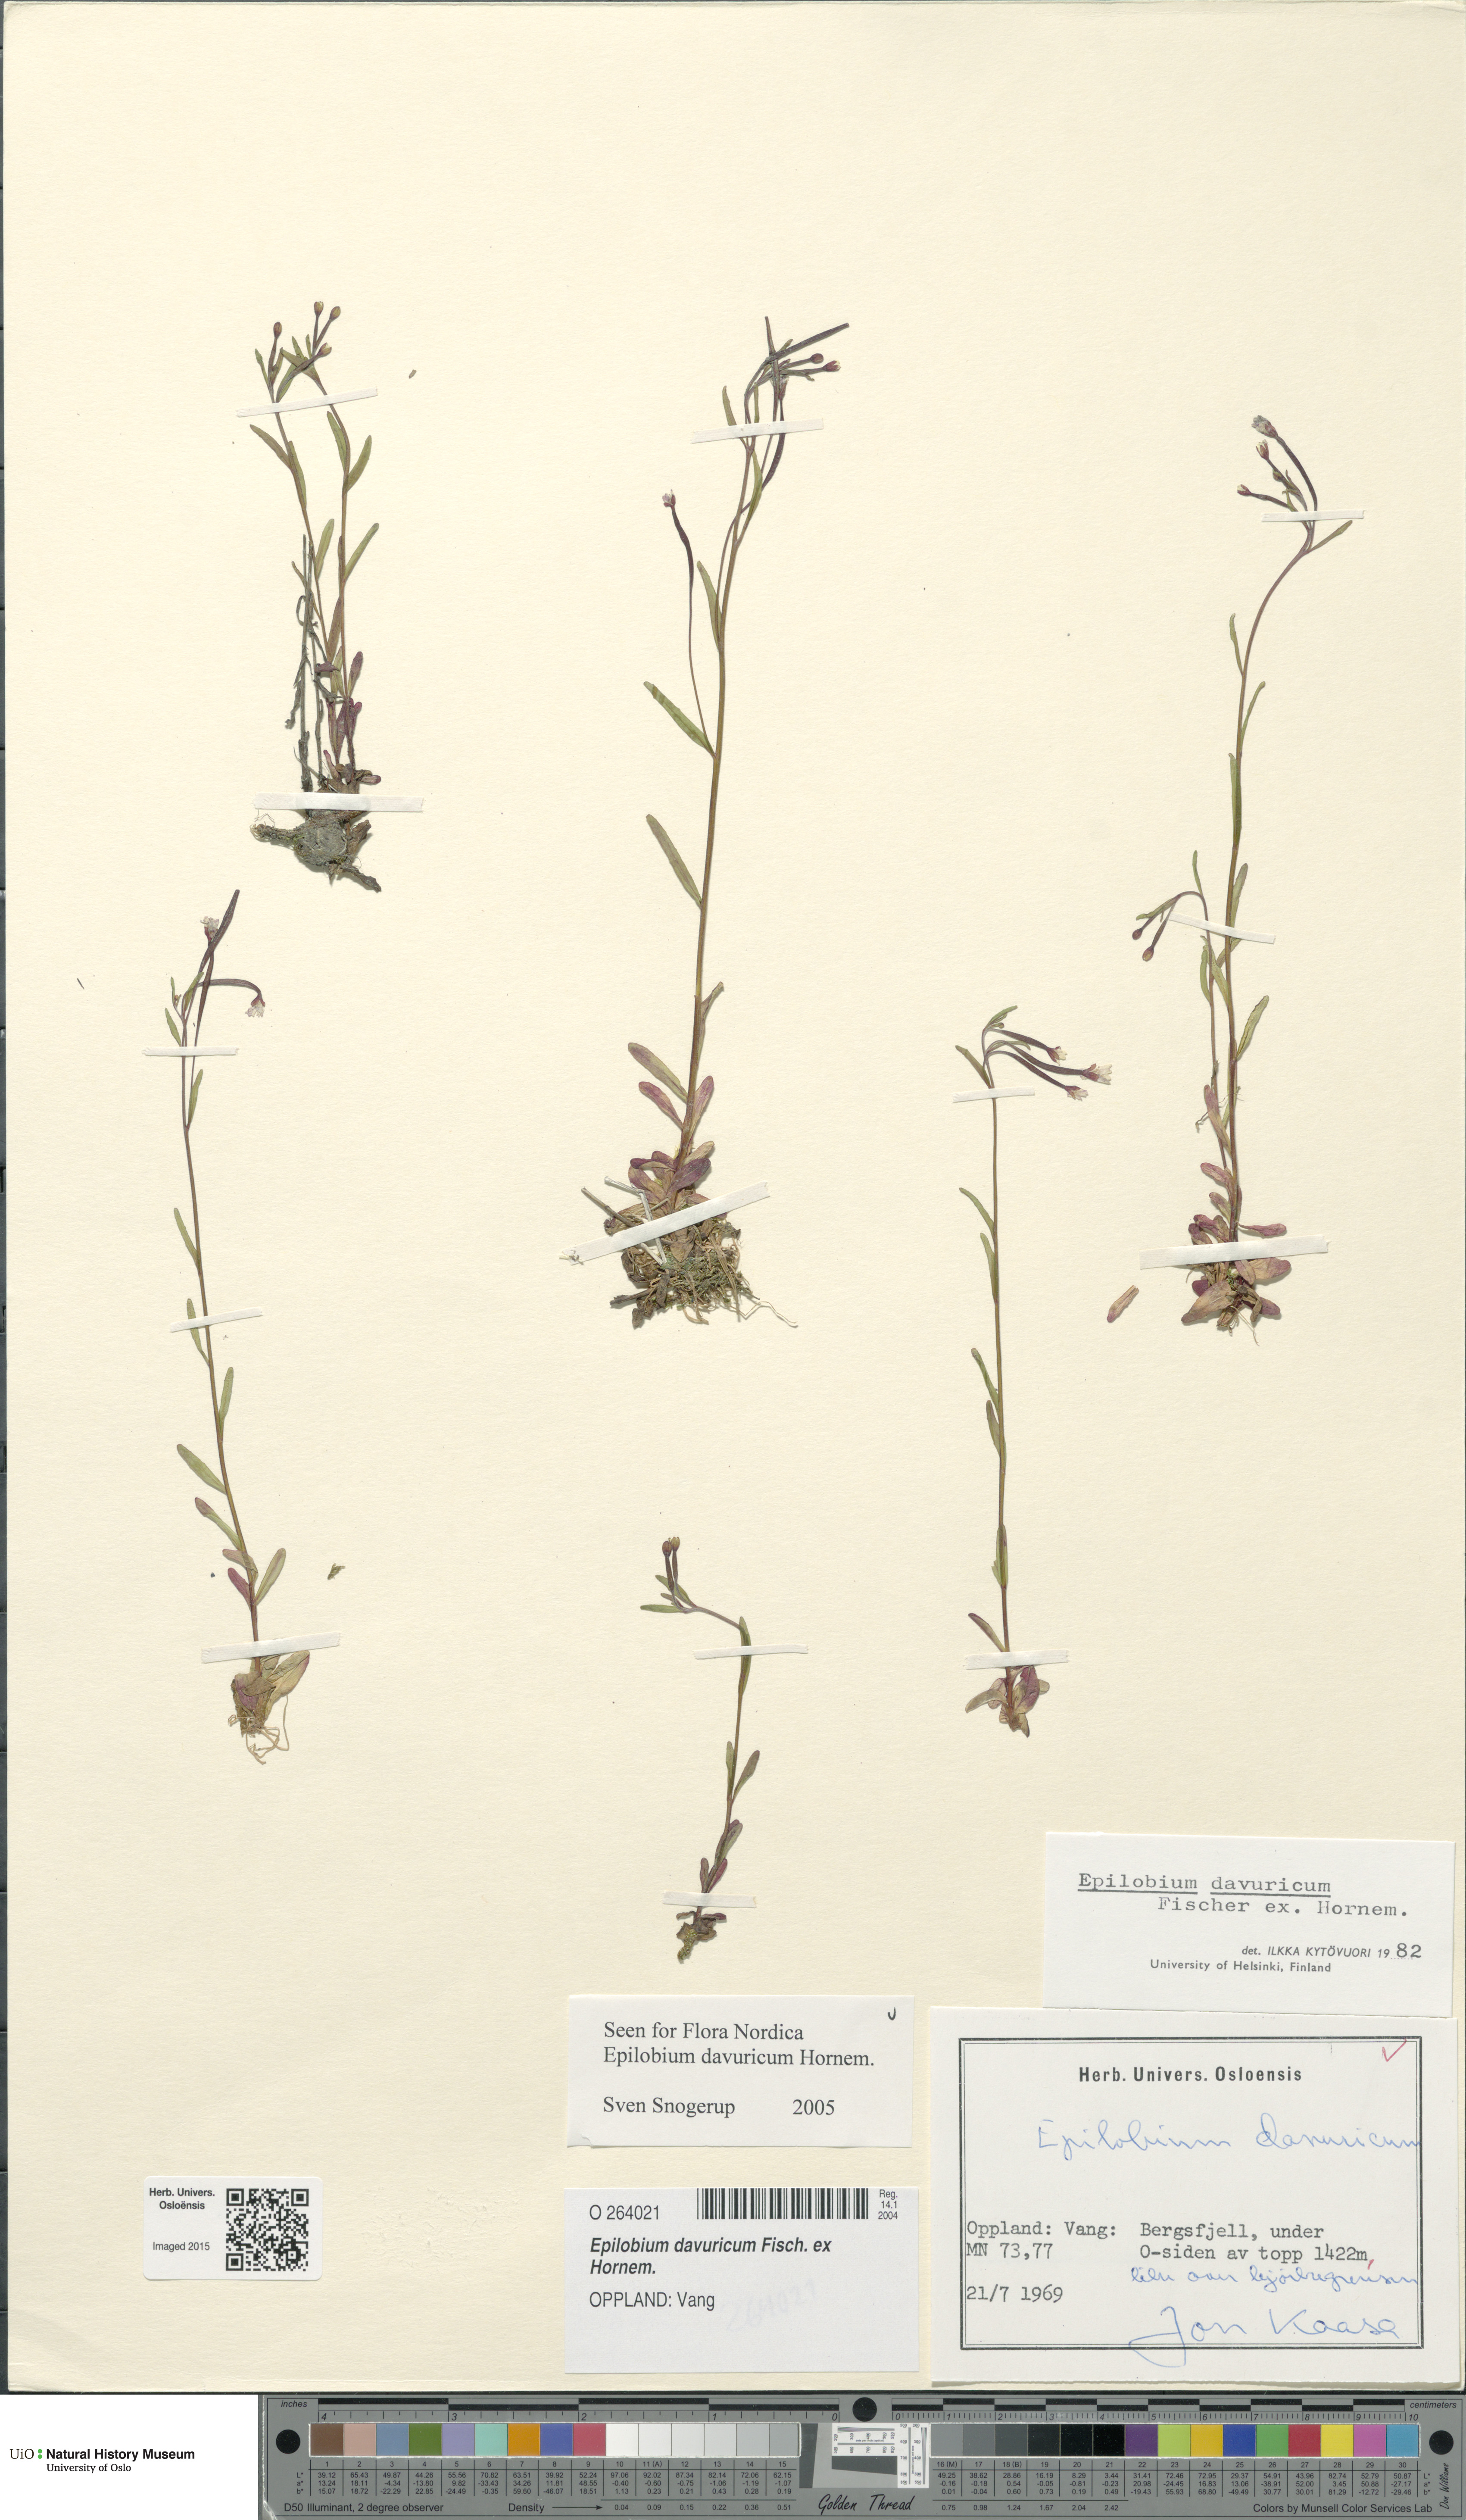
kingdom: Plantae
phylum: Tracheophyta
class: Magnoliopsida
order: Myrtales
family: Onagraceae
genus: Epilobium
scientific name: Epilobium davuricum
